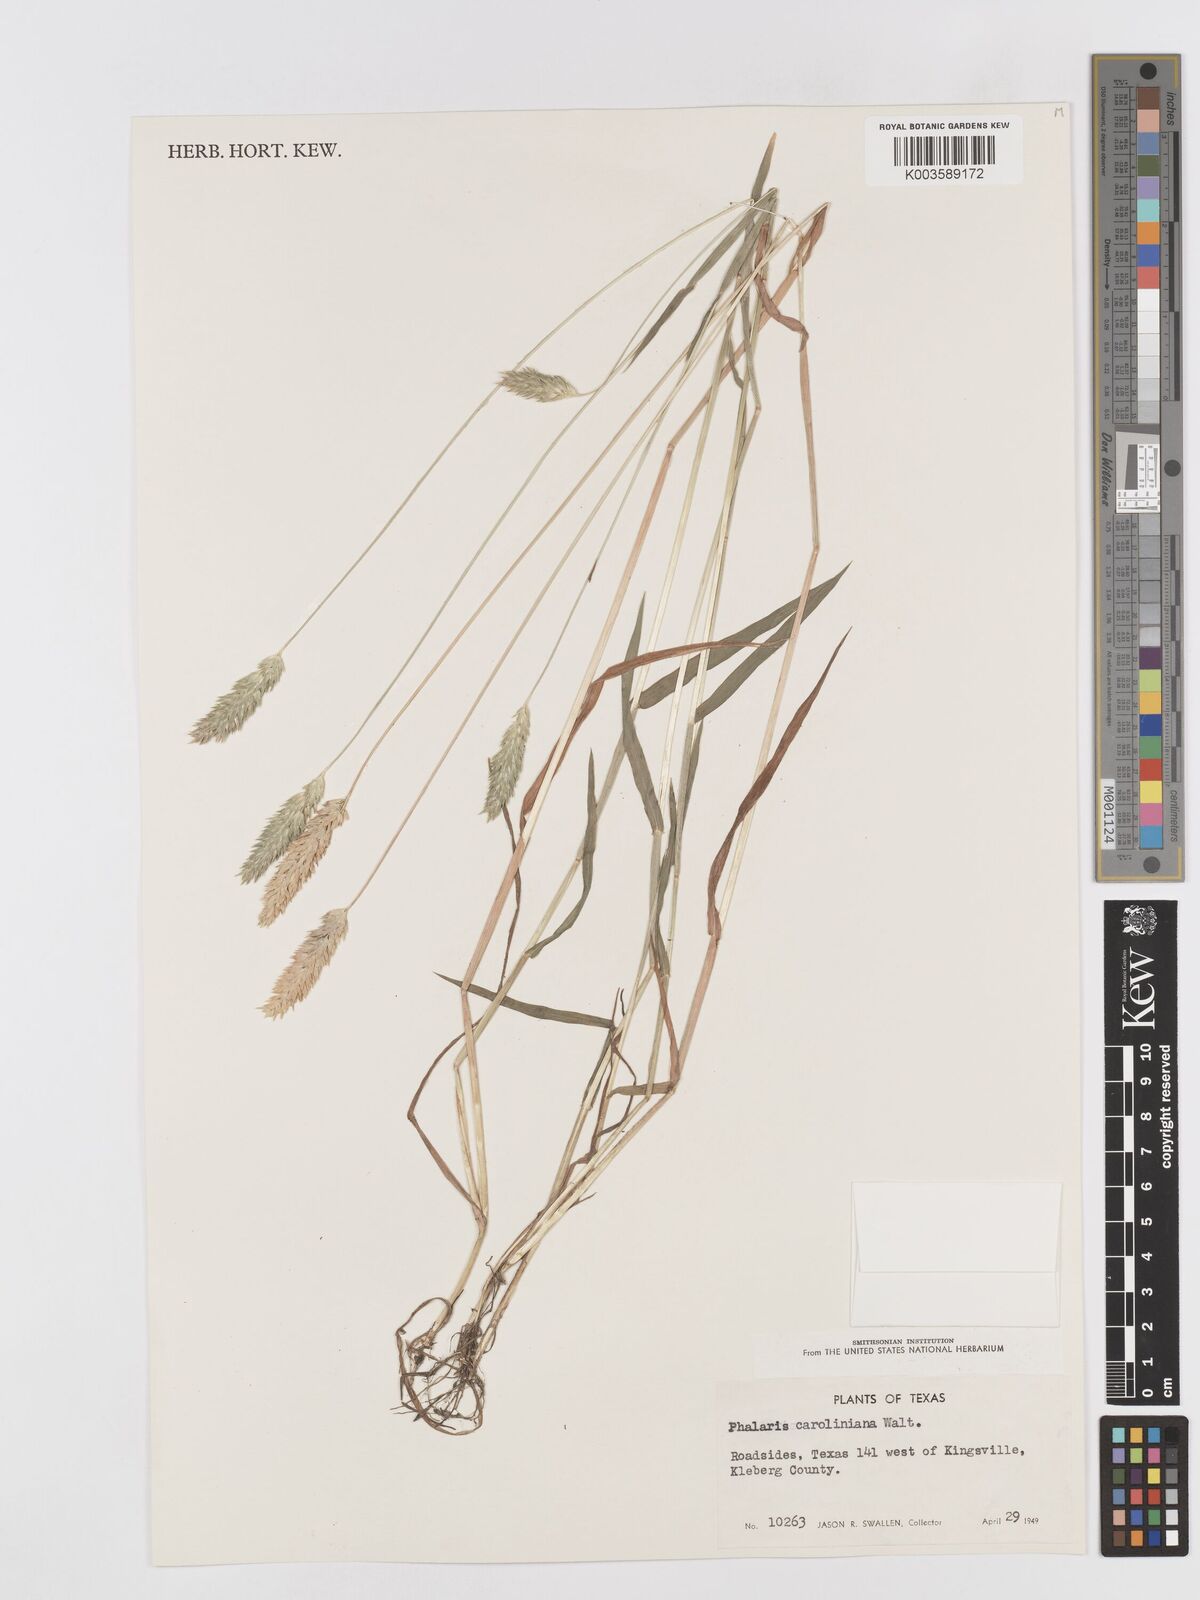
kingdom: Plantae
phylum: Tracheophyta
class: Liliopsida
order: Poales
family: Poaceae
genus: Phalaris
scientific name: Phalaris caroliniana
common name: May grass
